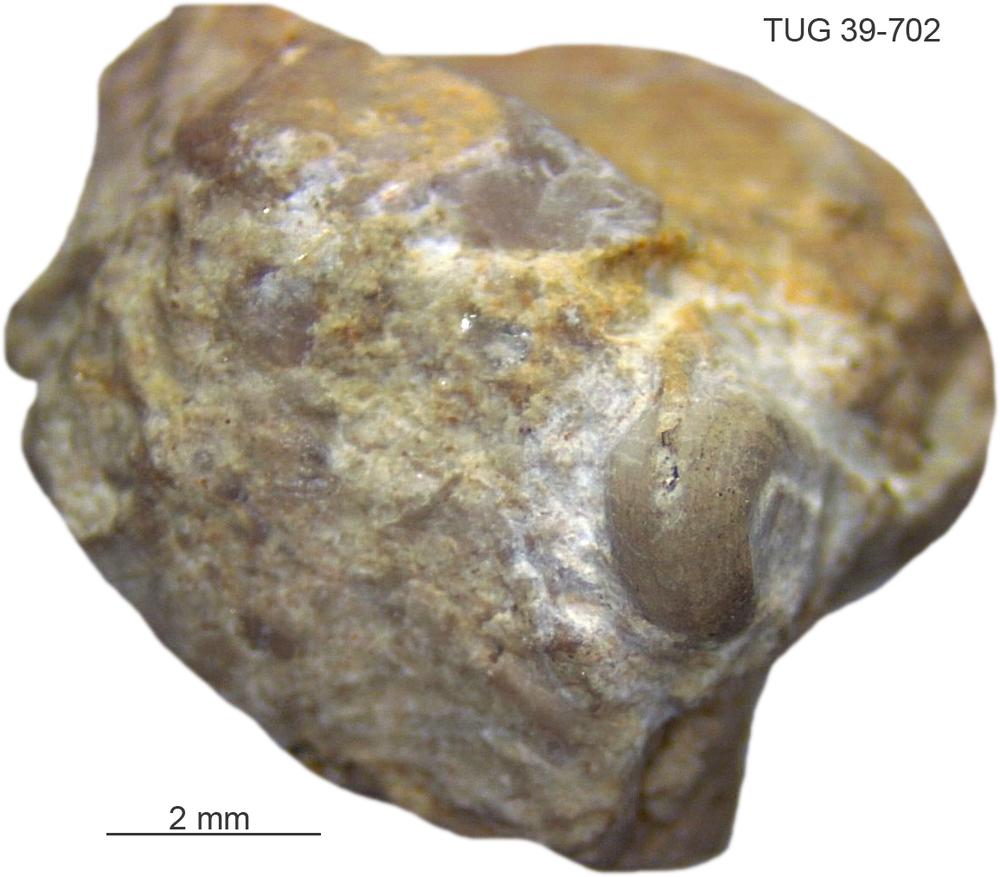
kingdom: Animalia
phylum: Mollusca
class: Gastropoda
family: Bucaniidae
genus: Bucania
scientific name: Bucania Bellerophon czekanowskii
